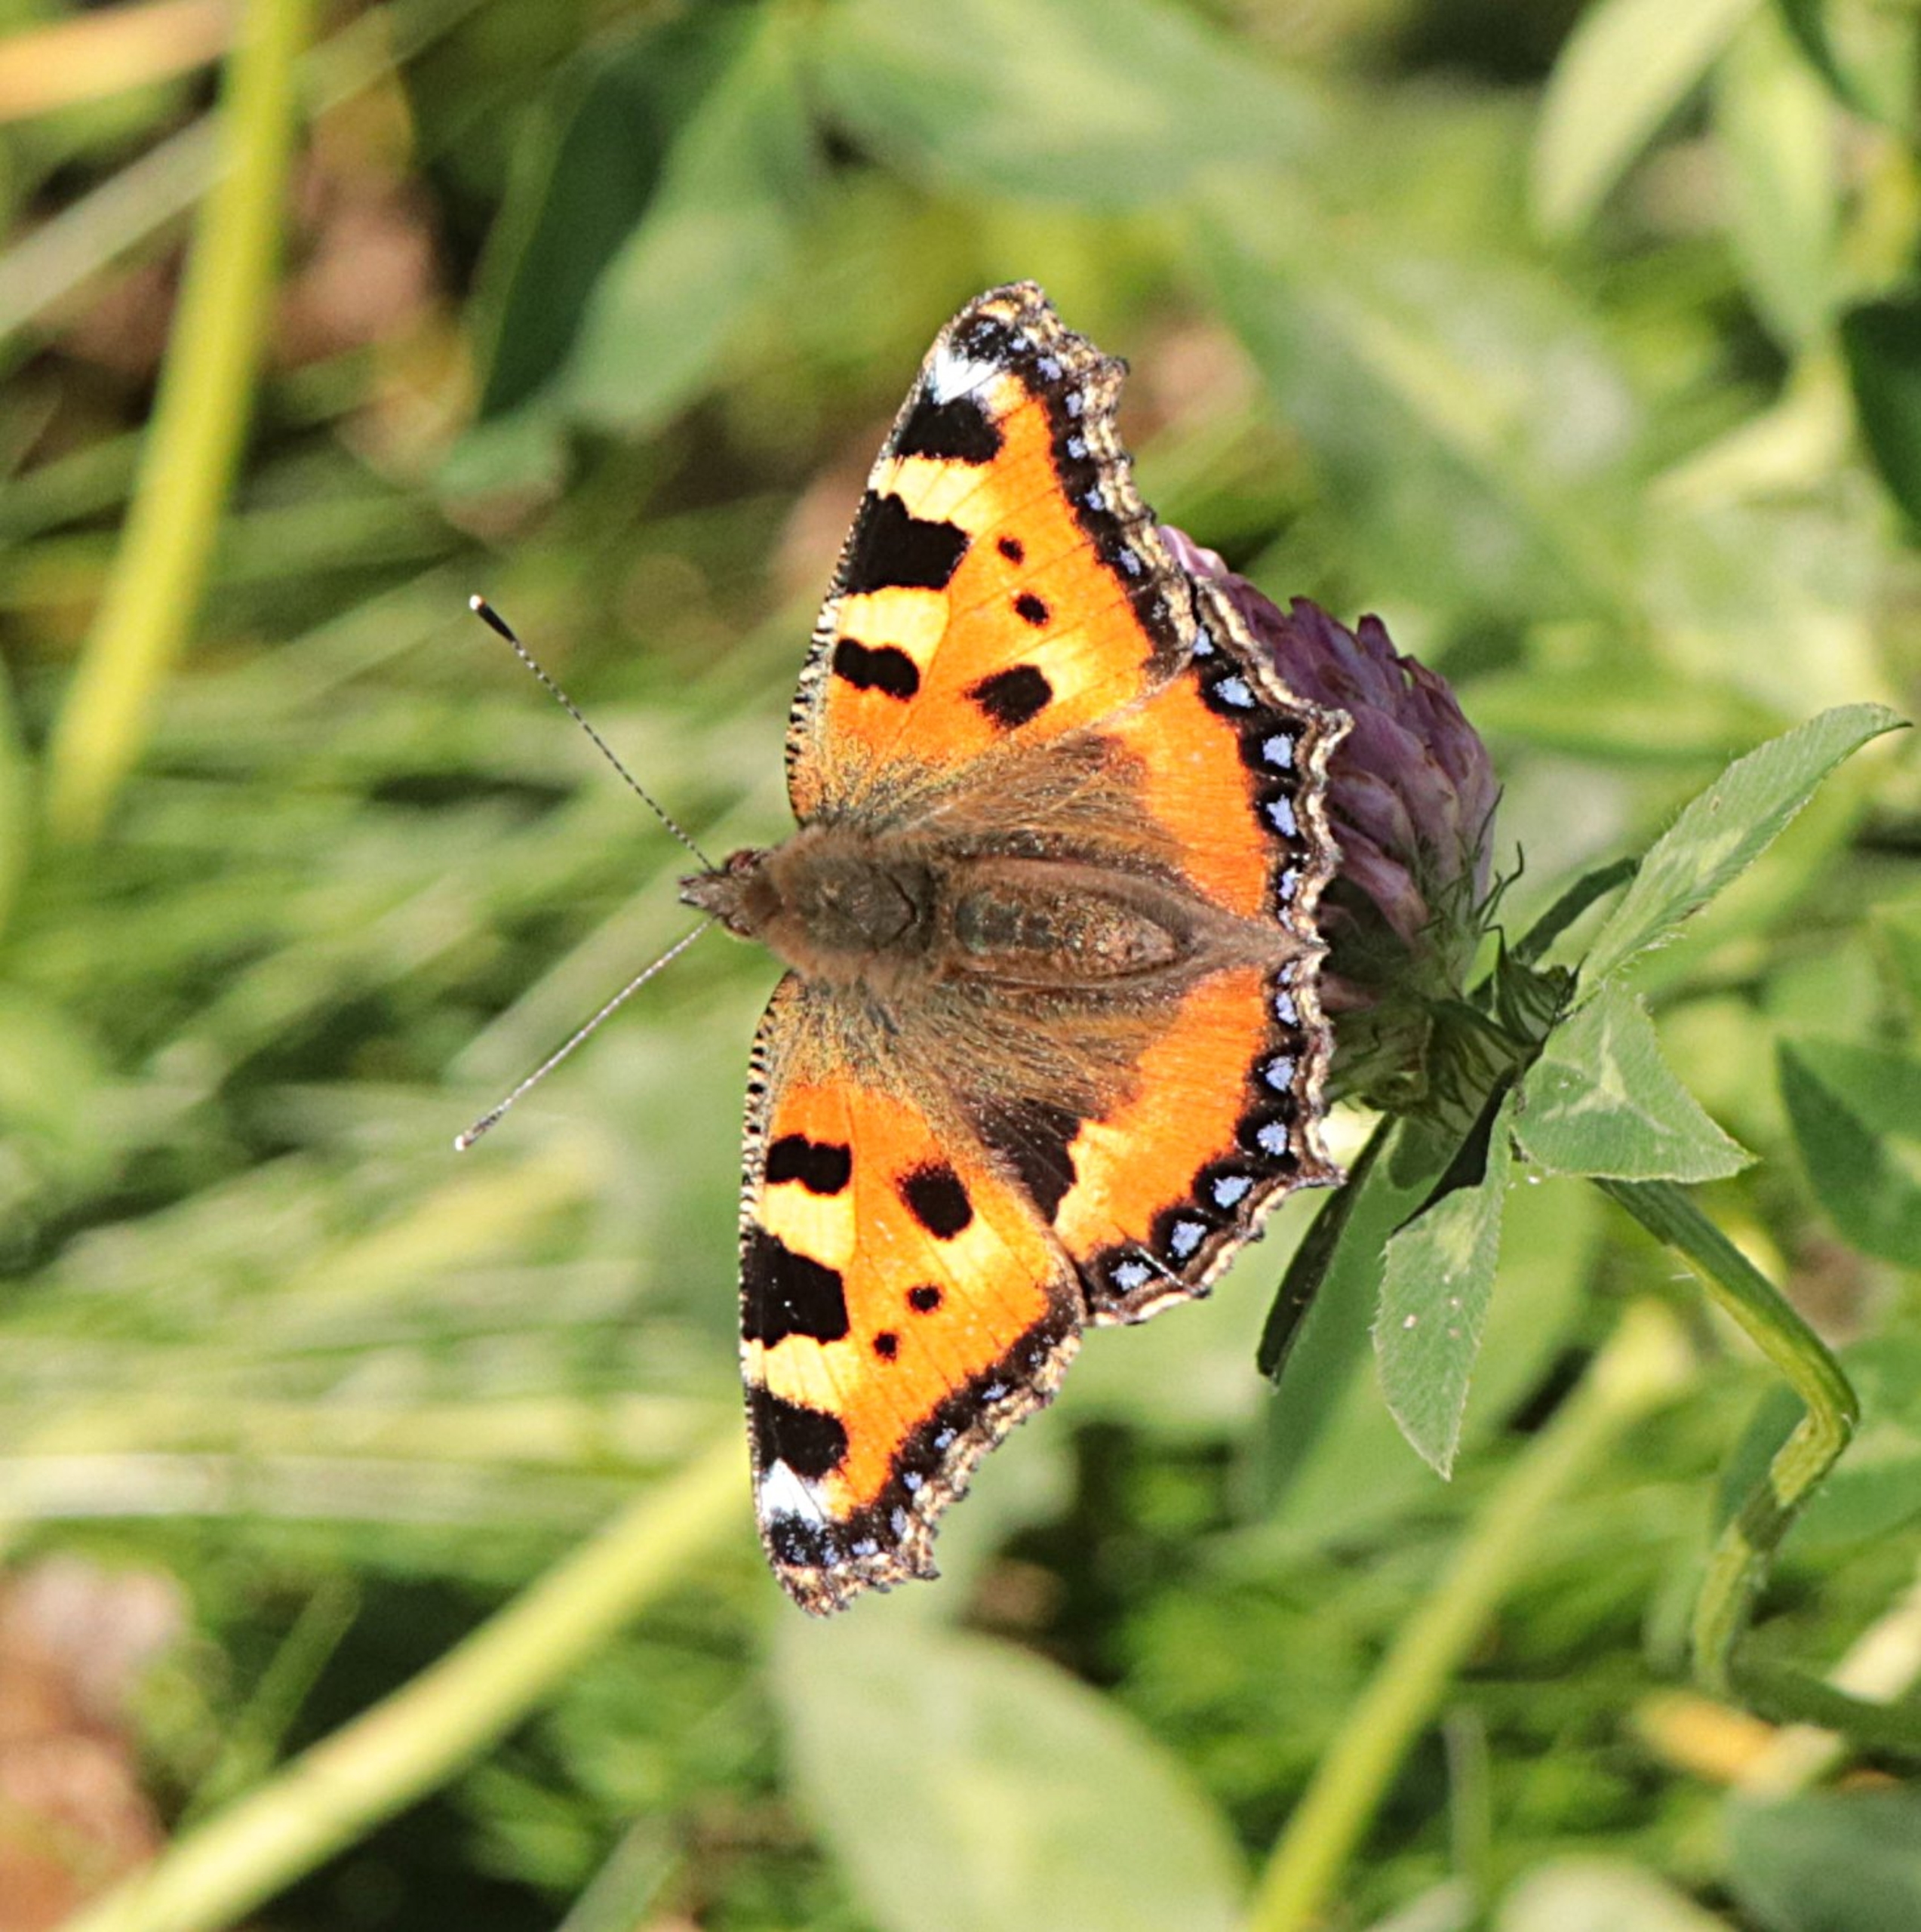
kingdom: Animalia
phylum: Arthropoda
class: Insecta
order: Lepidoptera
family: Nymphalidae
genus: Aglais
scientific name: Aglais urticae
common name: Nældens takvinge
